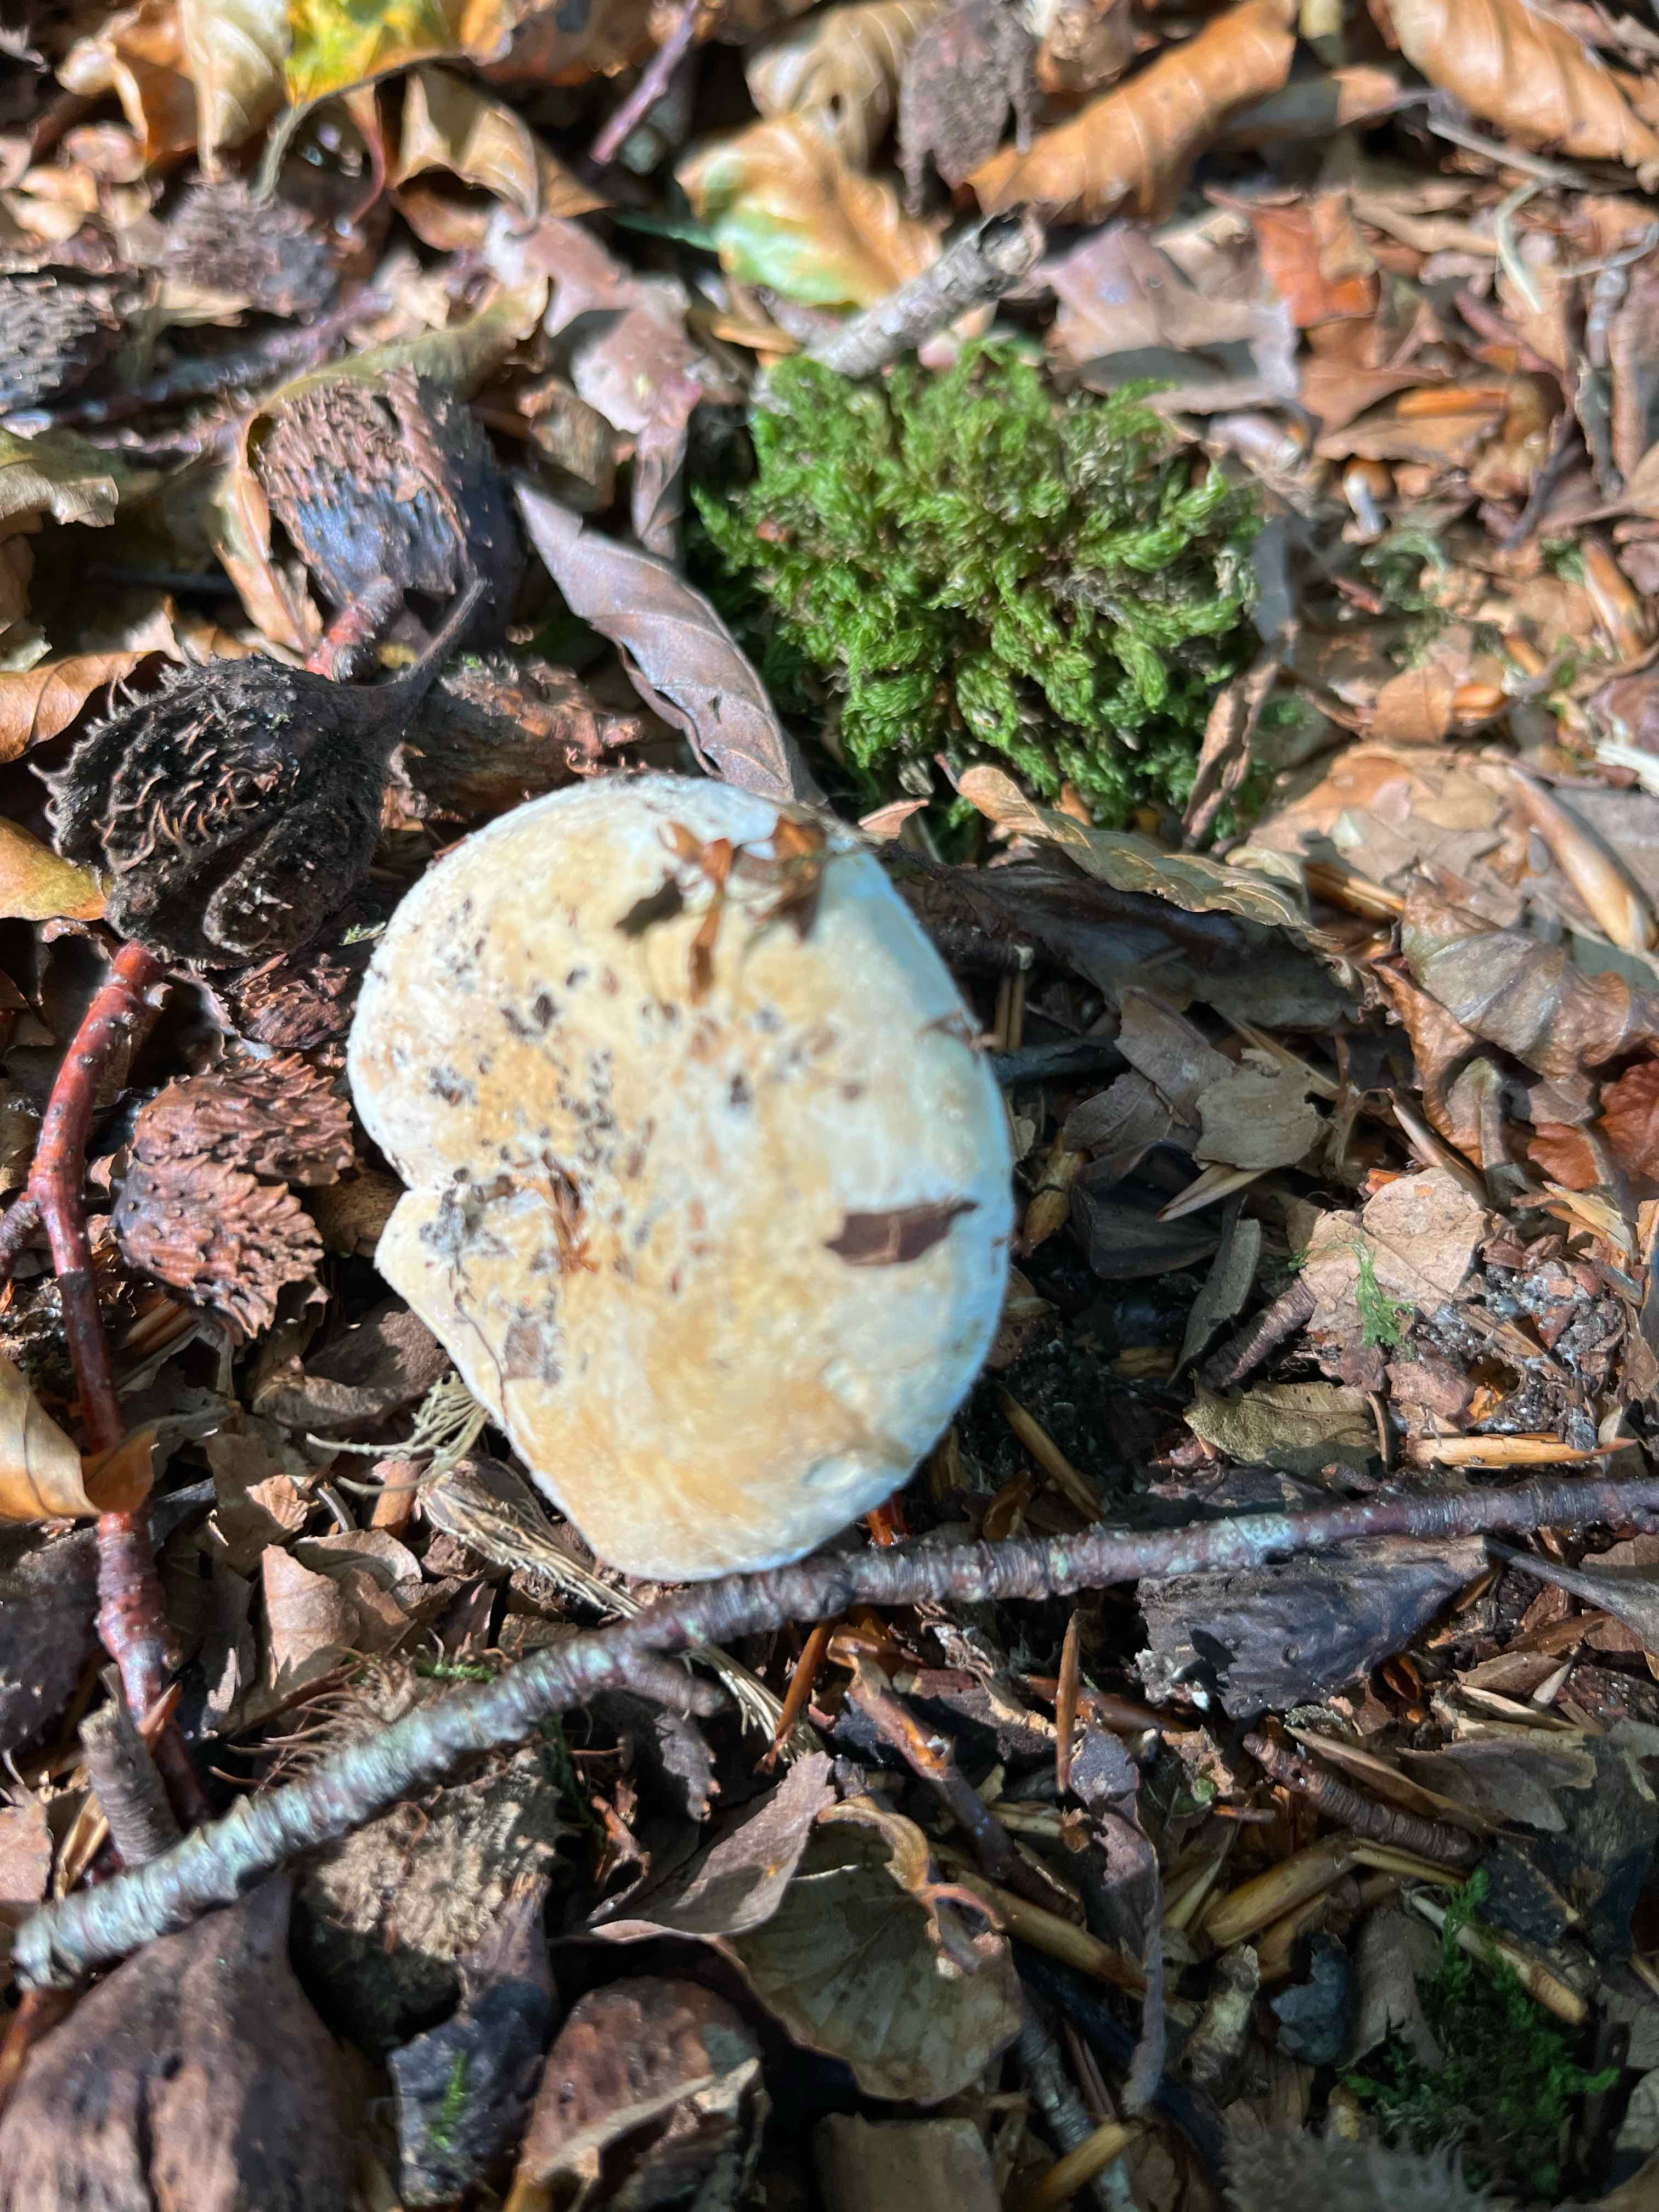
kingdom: Fungi
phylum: Basidiomycota
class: Agaricomycetes
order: Russulales
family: Russulaceae
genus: Lactifluus
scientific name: Lactifluus vellereus
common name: hvidfiltet mælkehat
